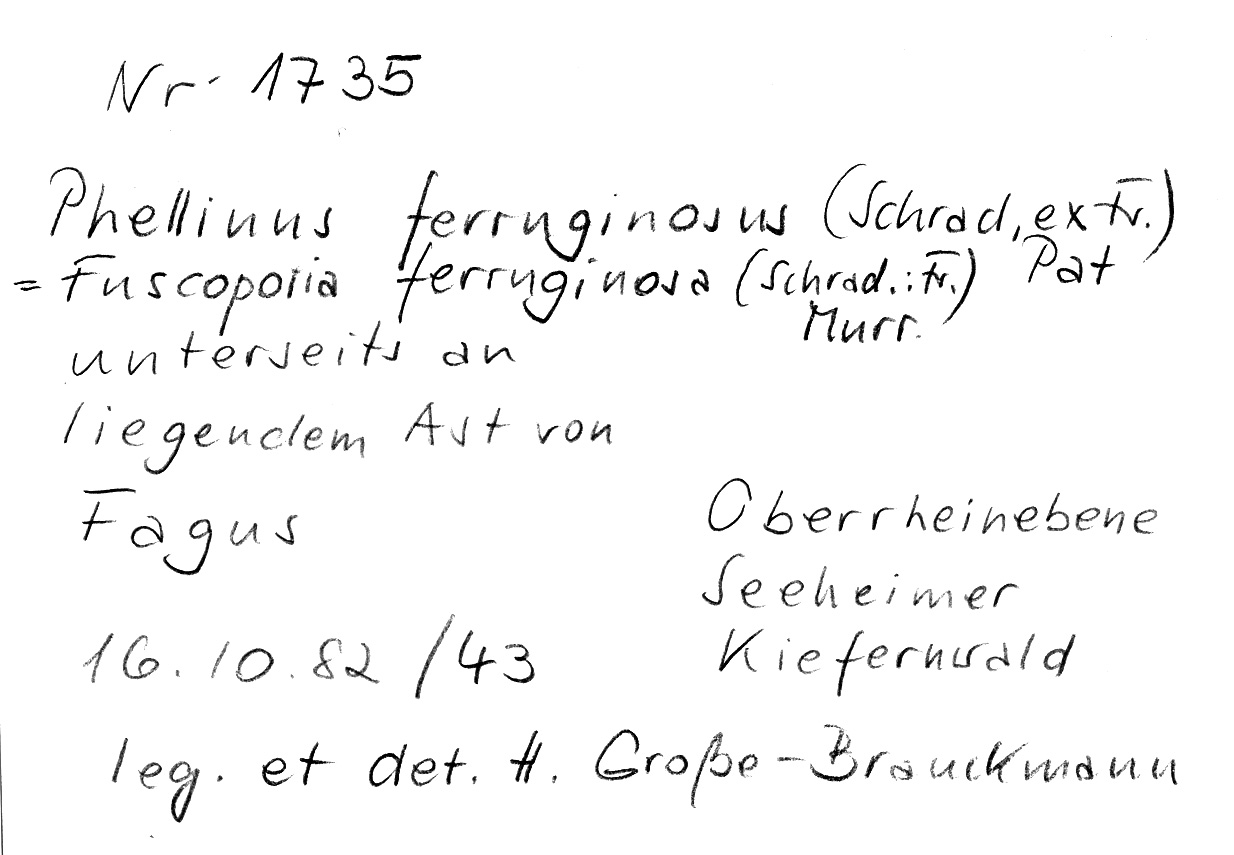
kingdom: Plantae
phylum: Tracheophyta
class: Magnoliopsida
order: Fagales
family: Fagaceae
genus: Fagus
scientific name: Fagus sylvatica
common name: Beech
